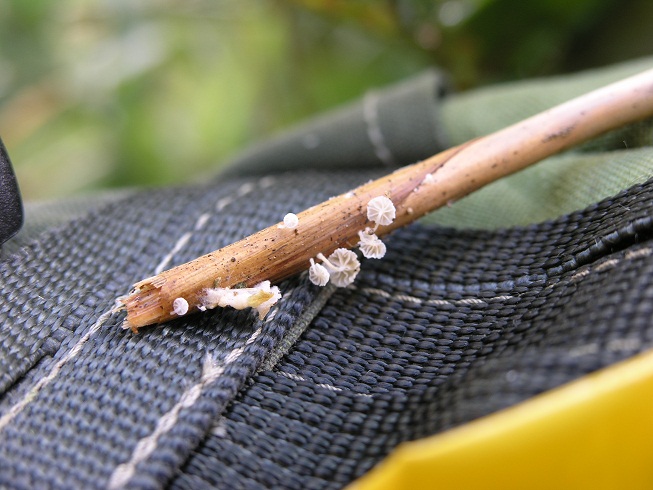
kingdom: Fungi
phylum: Basidiomycota
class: Agaricomycetes
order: Agaricales
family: Mycenaceae
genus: Resinomycena
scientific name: Resinomycena saccharifera
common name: sukkerhat
